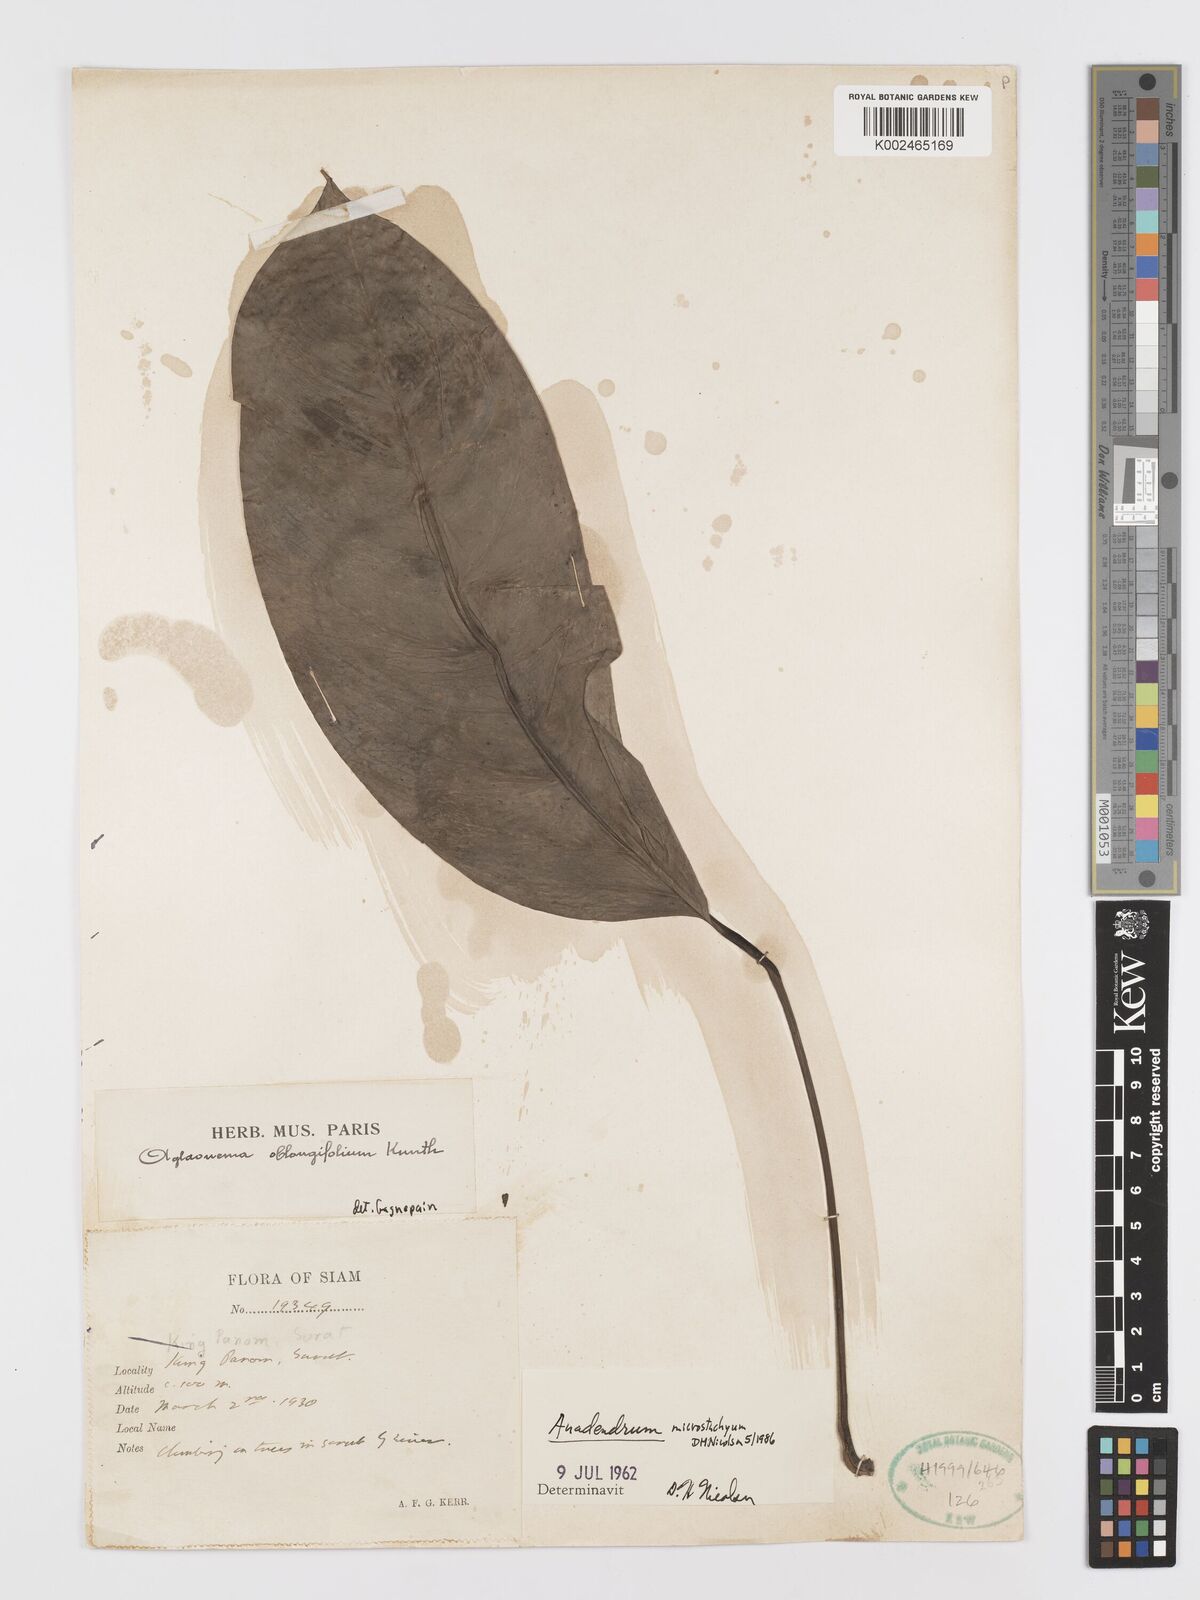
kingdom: Plantae
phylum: Tracheophyta
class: Liliopsida
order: Alismatales
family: Araceae
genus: Anadendrum
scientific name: Anadendrum microstachyum
